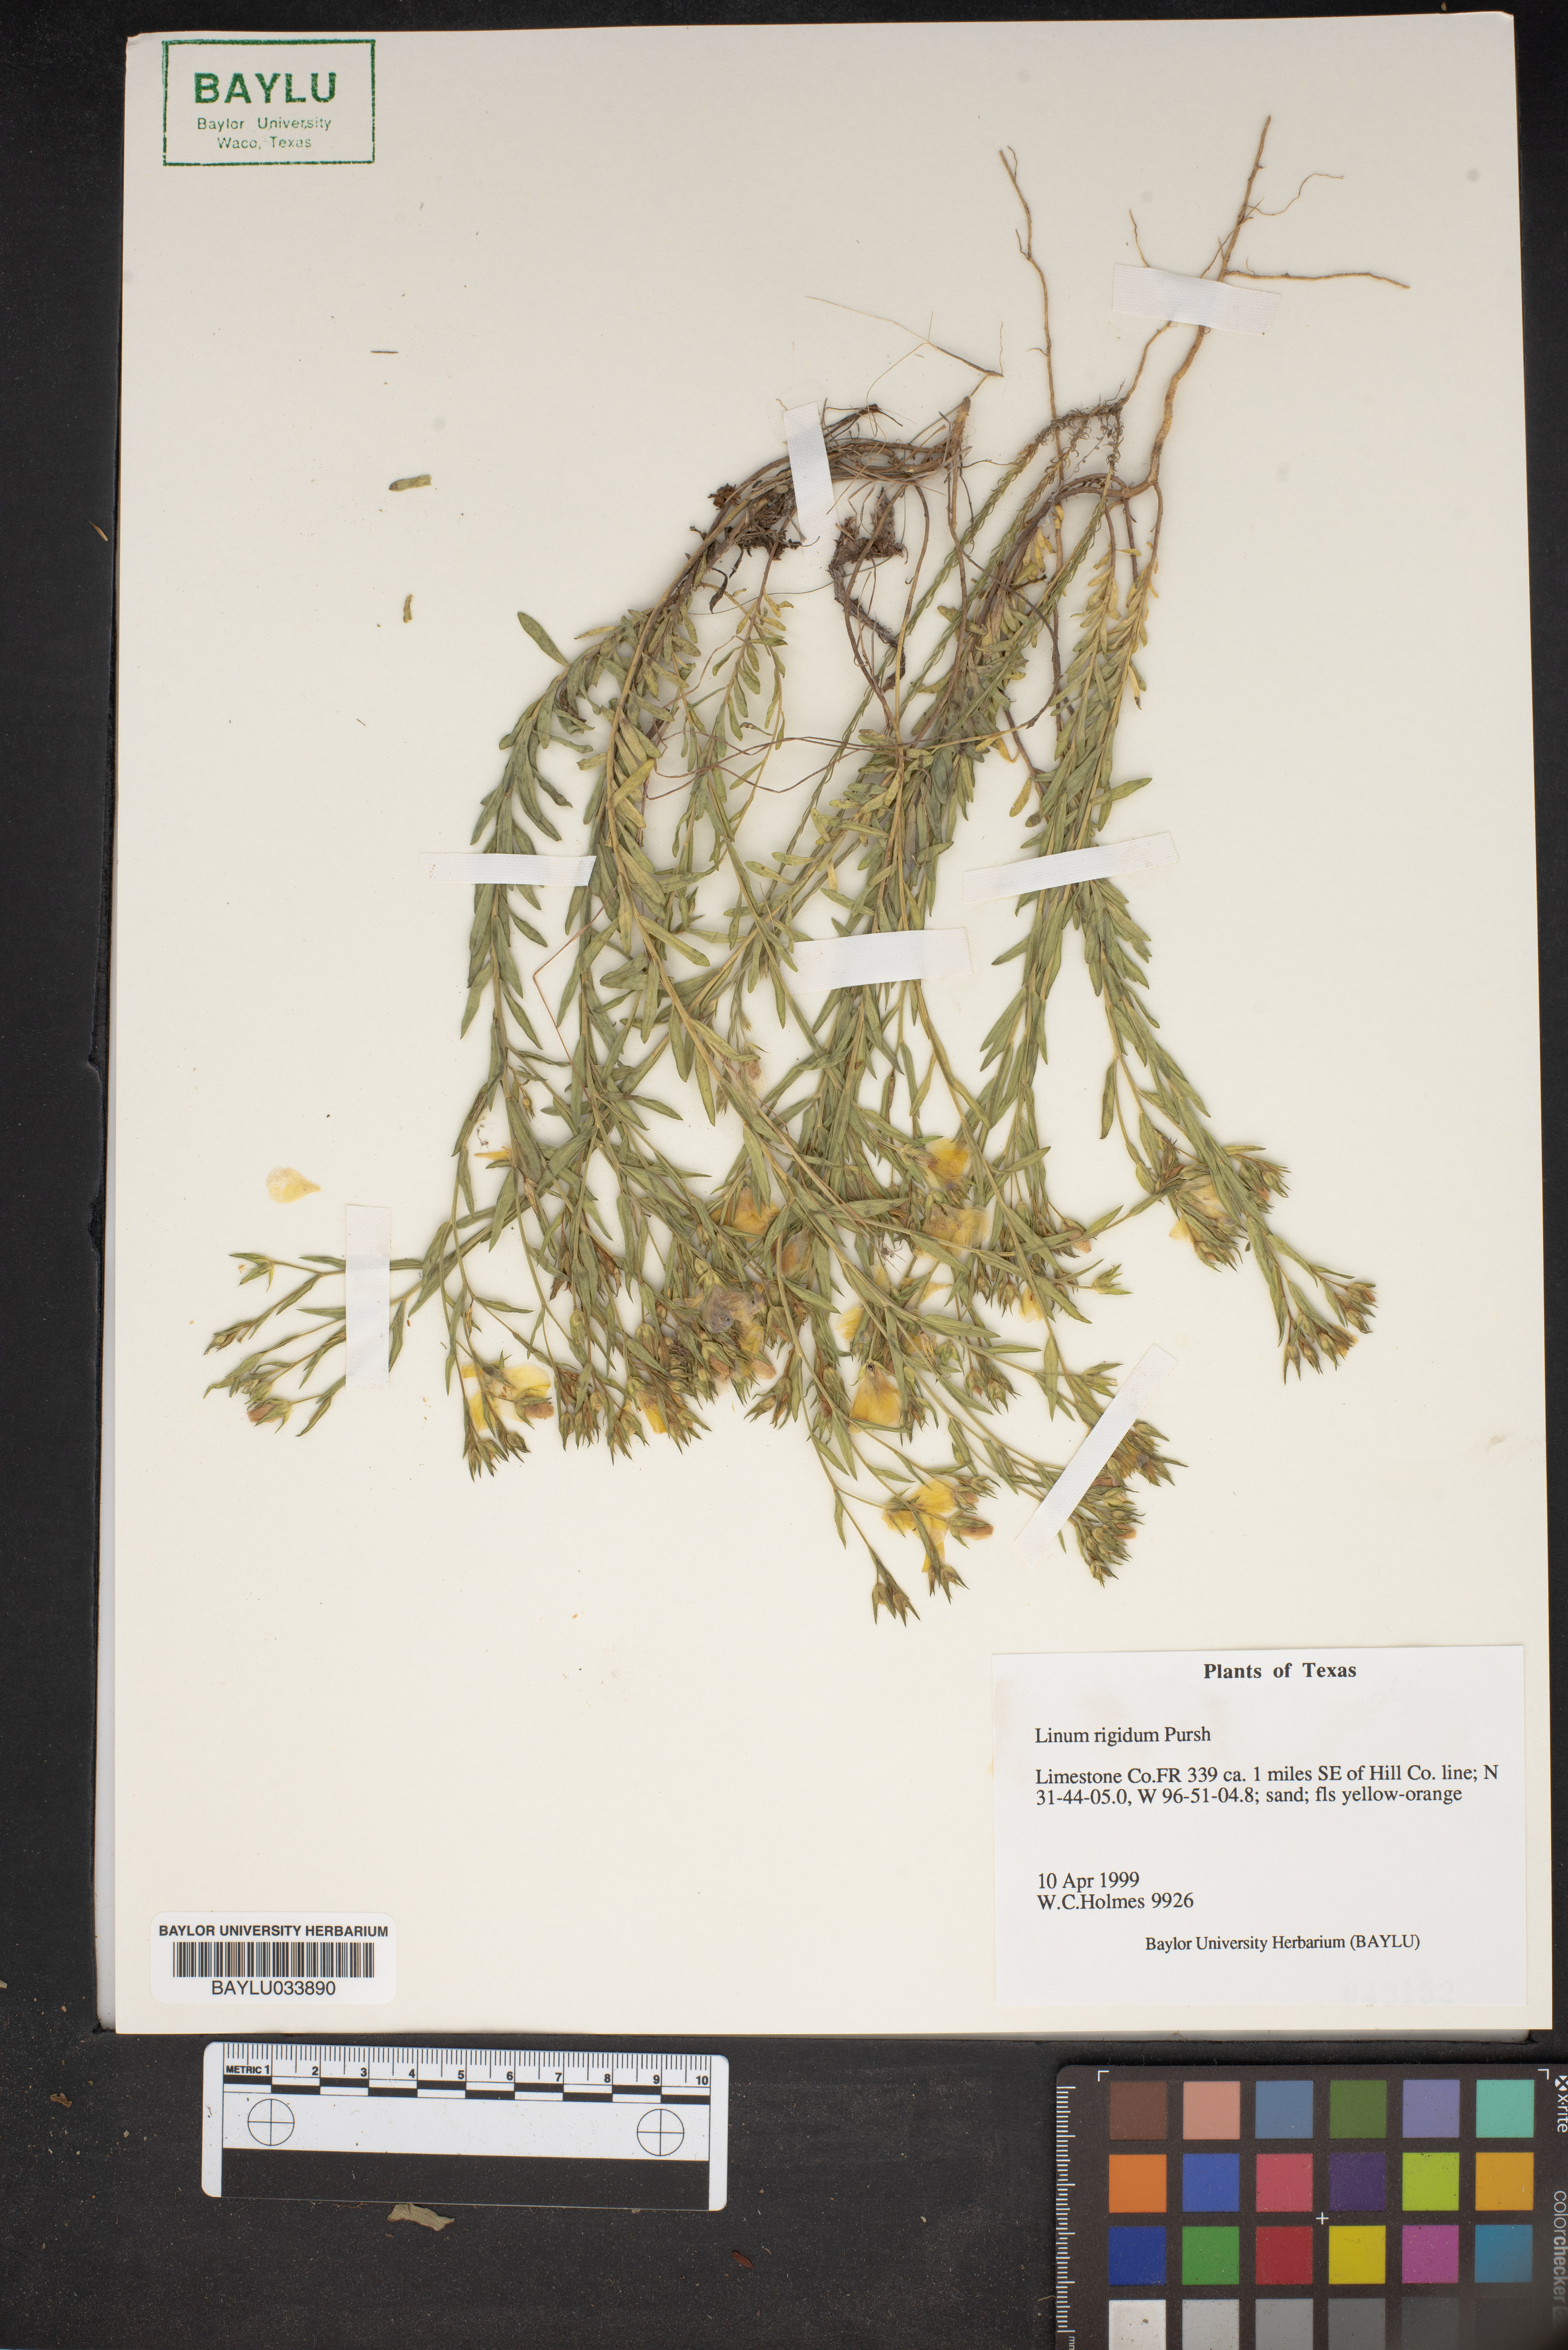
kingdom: Plantae
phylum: Tracheophyta
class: Magnoliopsida
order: Malpighiales
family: Linaceae
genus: Linum
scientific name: Linum rigidum
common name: Stiff-stem flax
